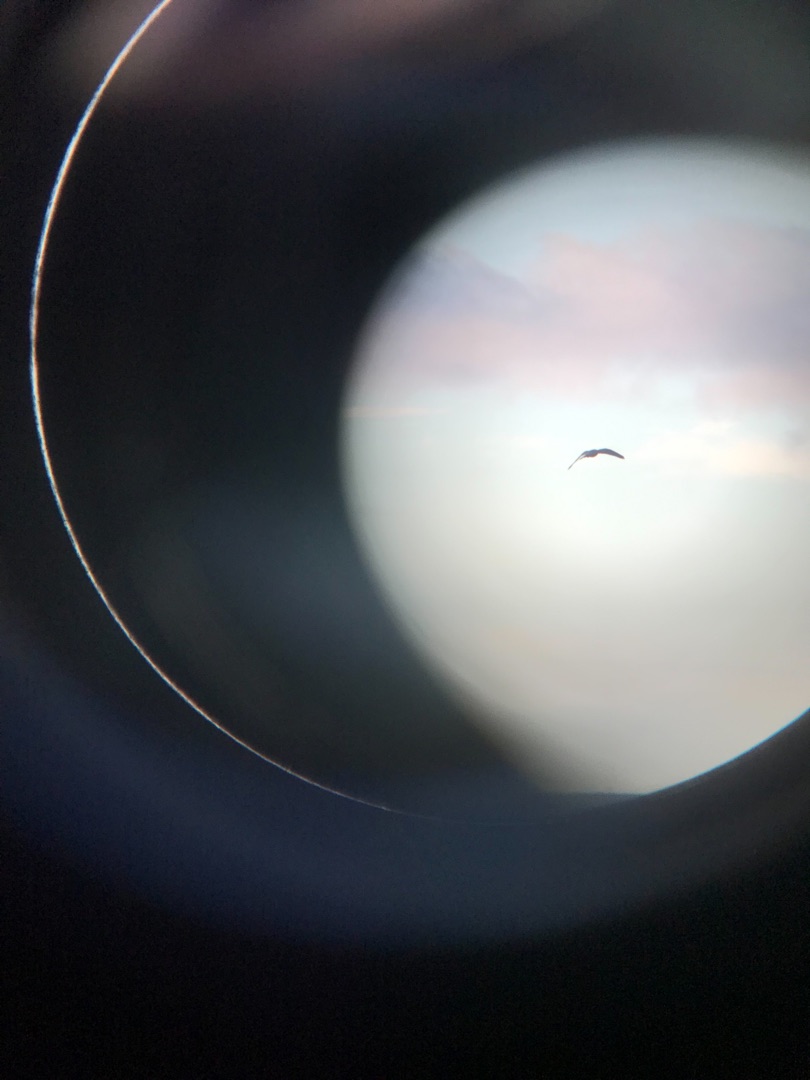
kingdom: Animalia
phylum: Chordata
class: Aves
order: Falconiformes
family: Falconidae
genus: Falco
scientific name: Falco tinnunculus
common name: Tårnfalk
